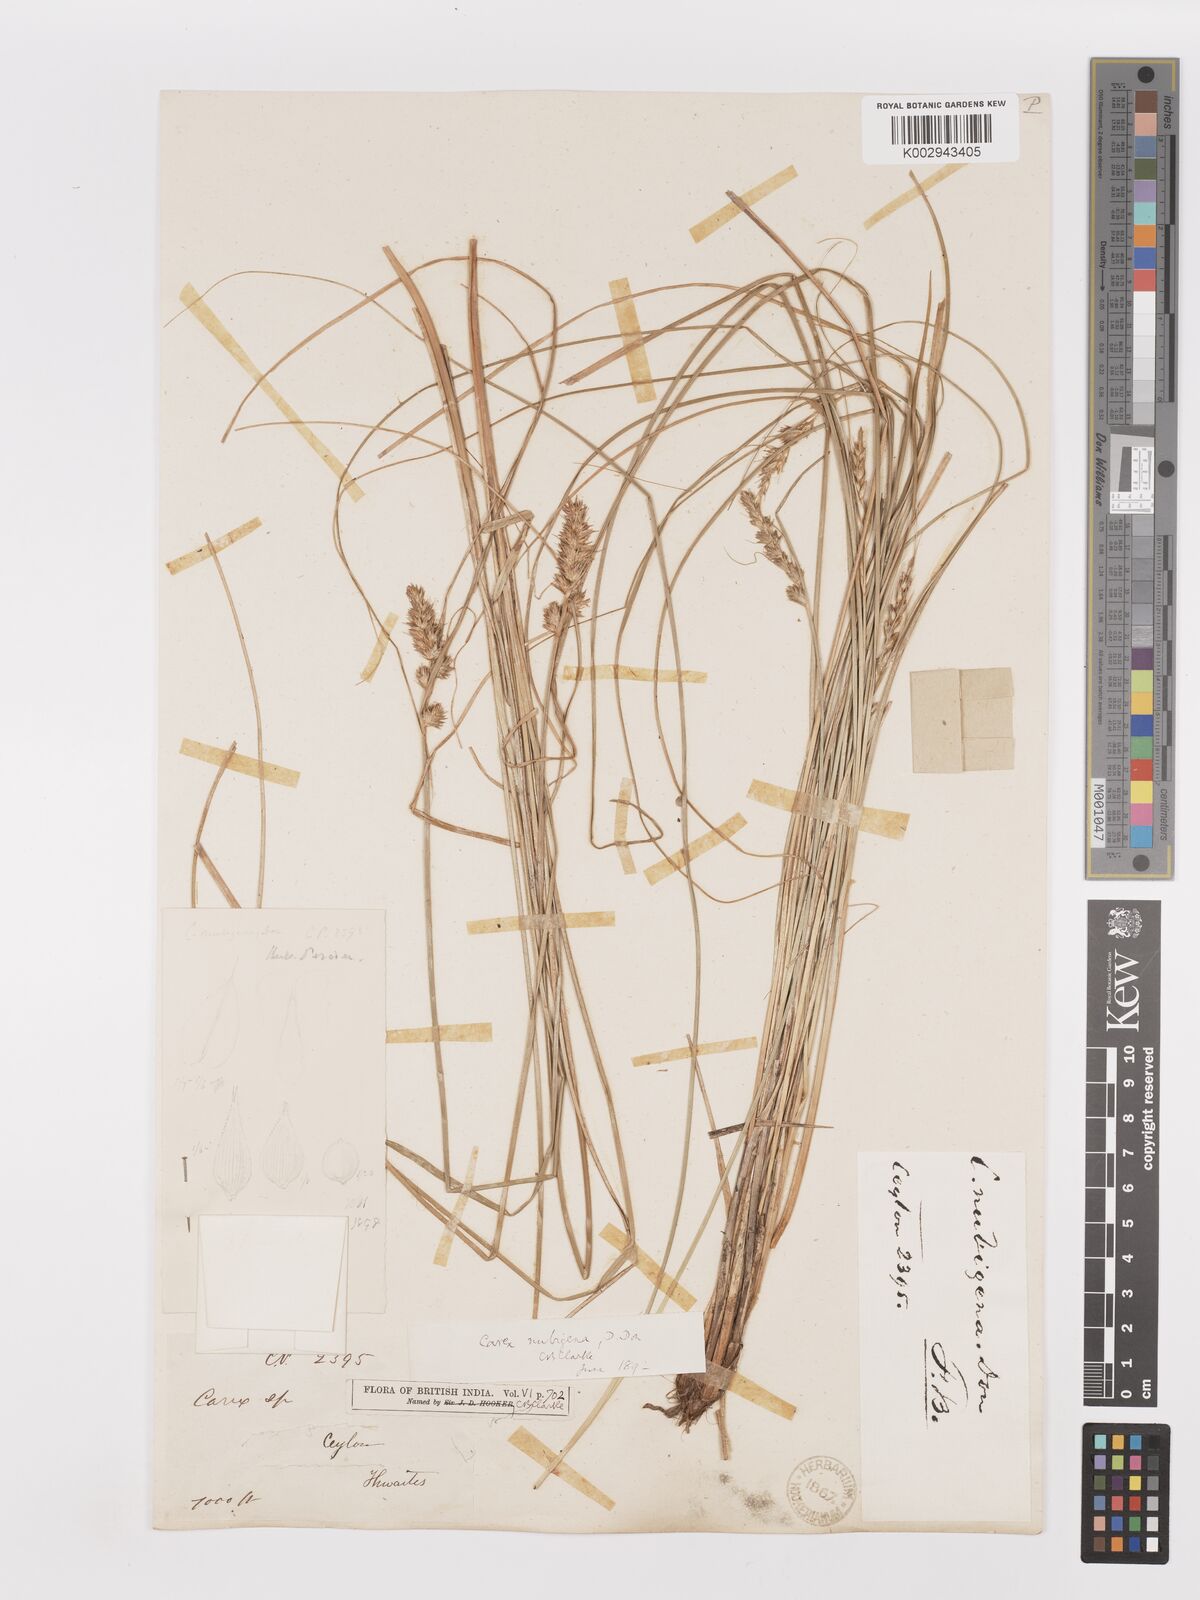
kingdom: Plantae
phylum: Tracheophyta
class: Liliopsida
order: Poales
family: Cyperaceae
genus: Carex
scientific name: Carex nubigena
